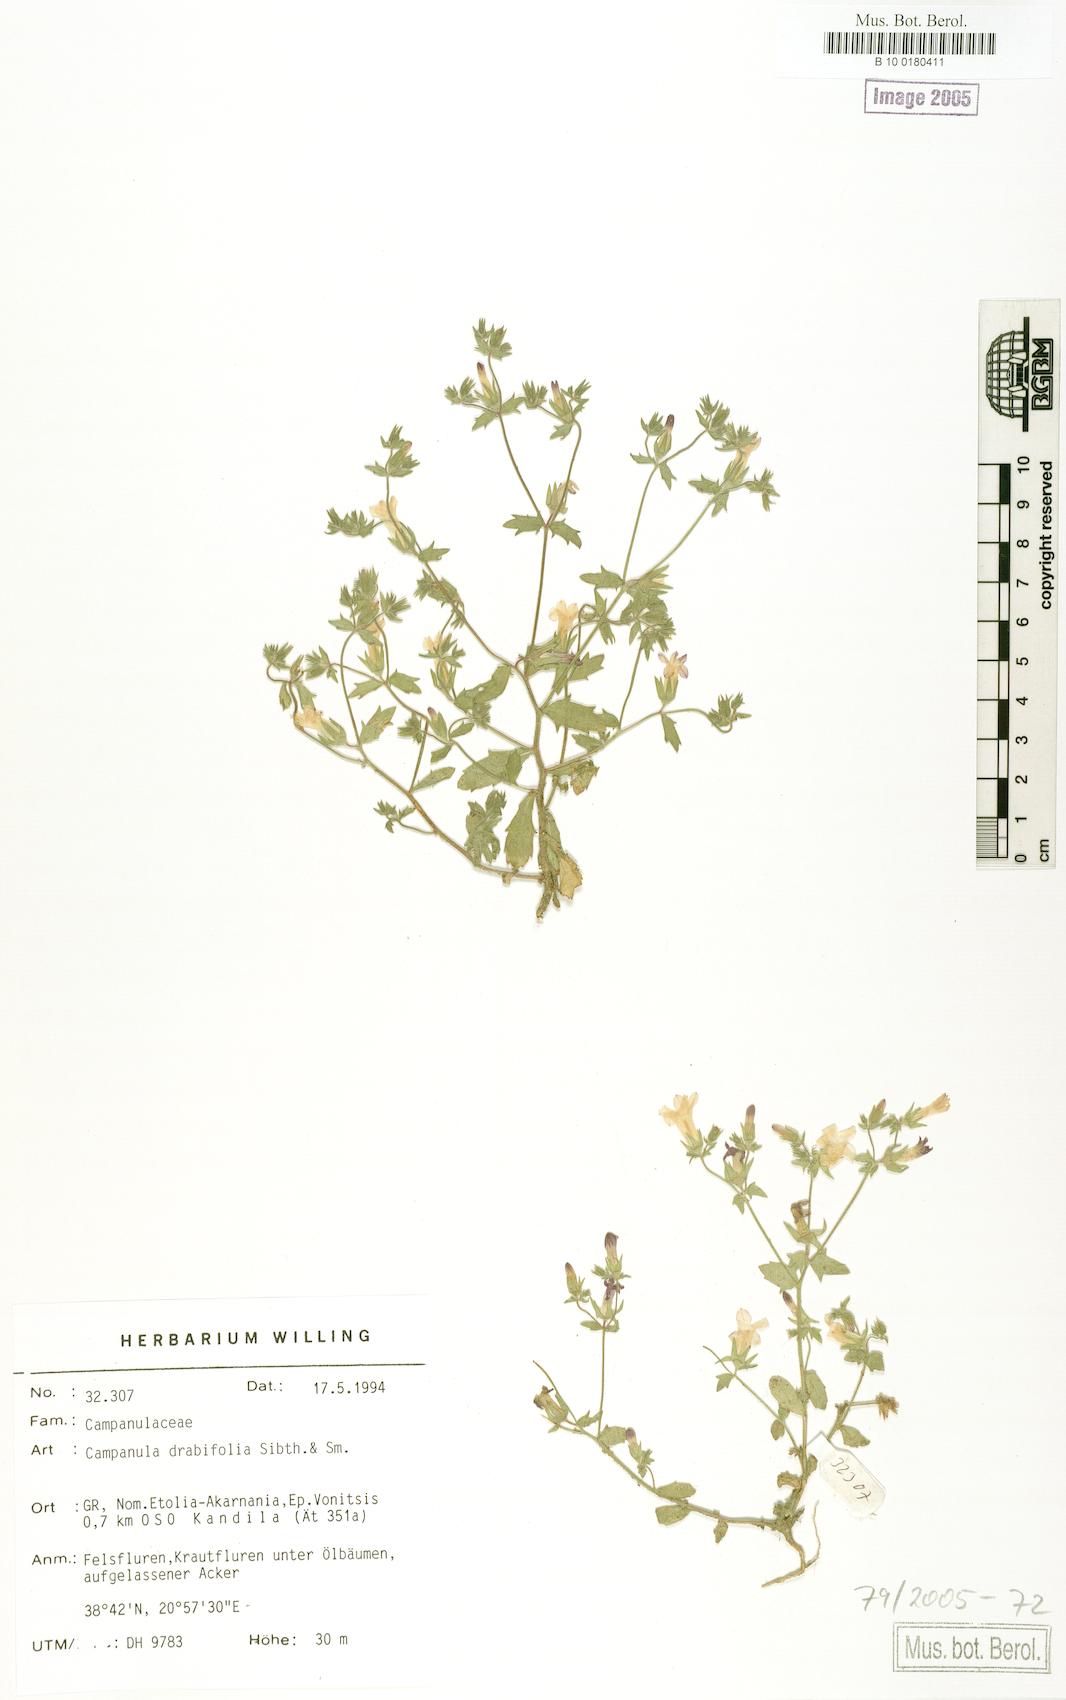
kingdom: Plantae
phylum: Tracheophyta
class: Magnoliopsida
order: Asterales
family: Campanulaceae
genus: Campanula
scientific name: Campanula drabifolia
